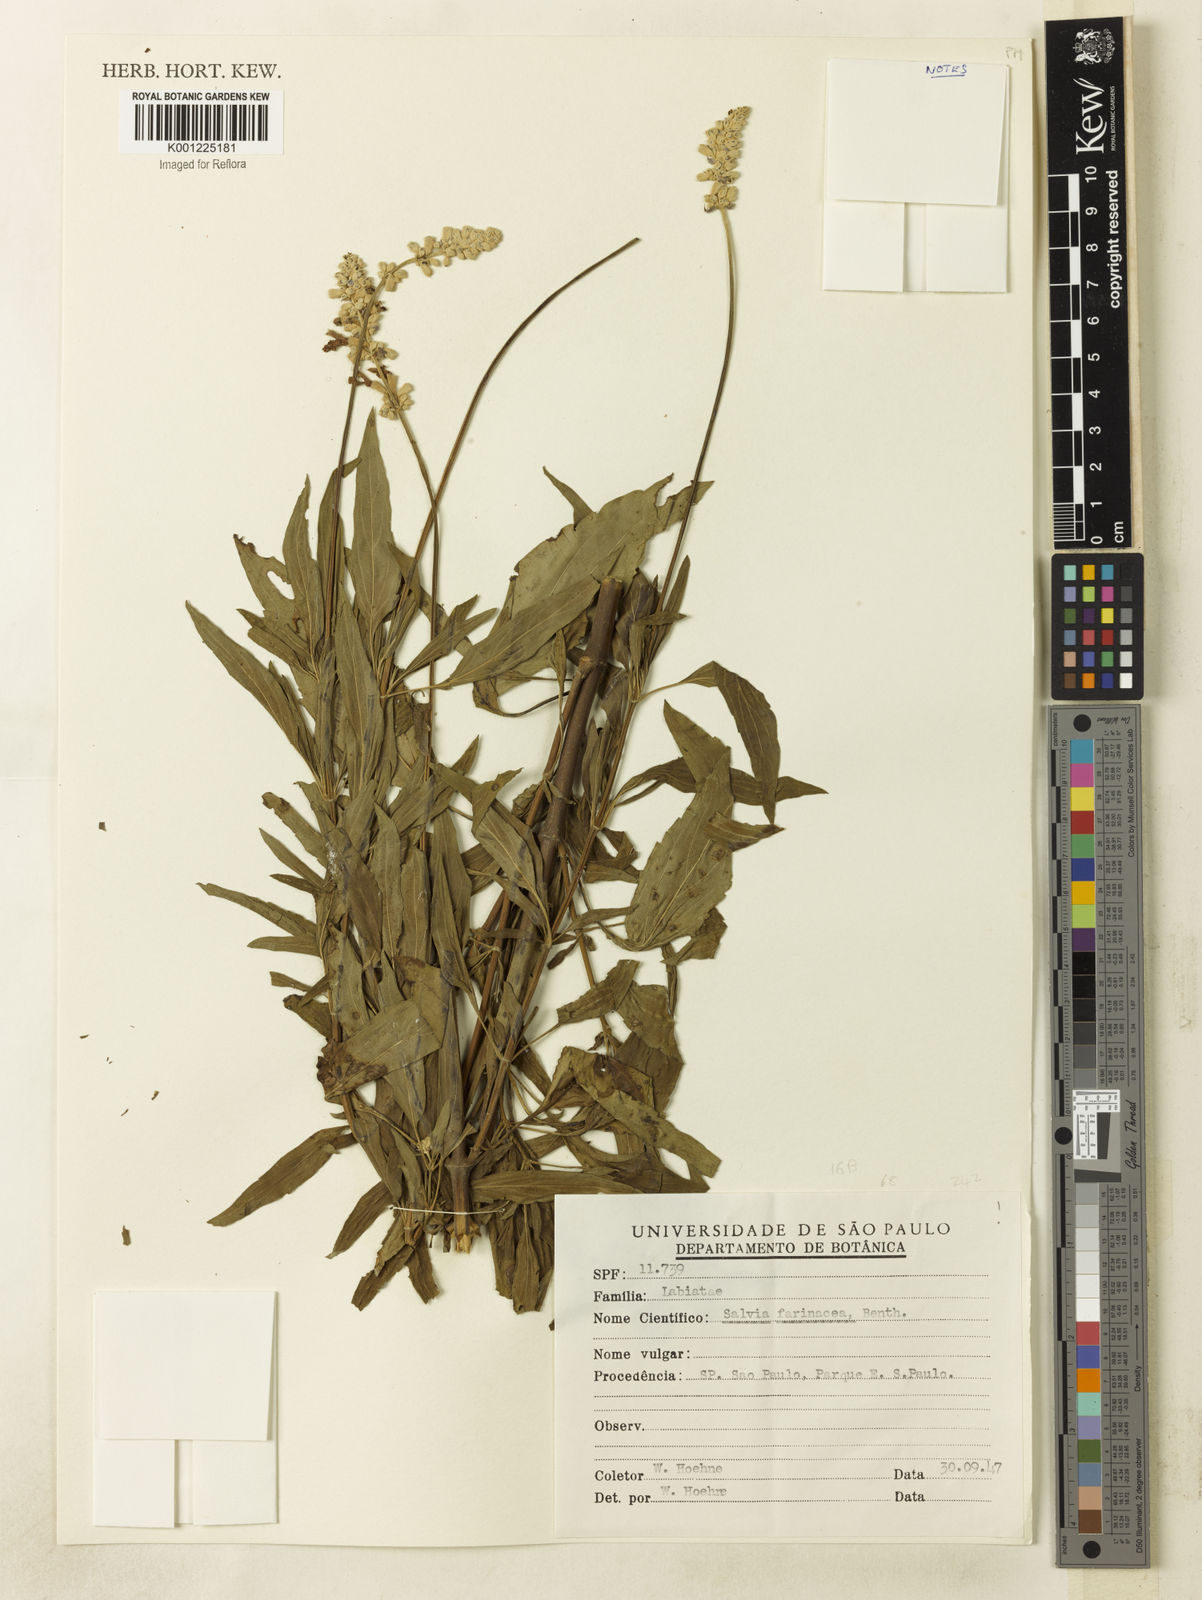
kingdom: Plantae
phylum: Tracheophyta
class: Magnoliopsida
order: Lamiales
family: Lamiaceae
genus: Salvia
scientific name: Salvia farinacea
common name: Mealy sage
